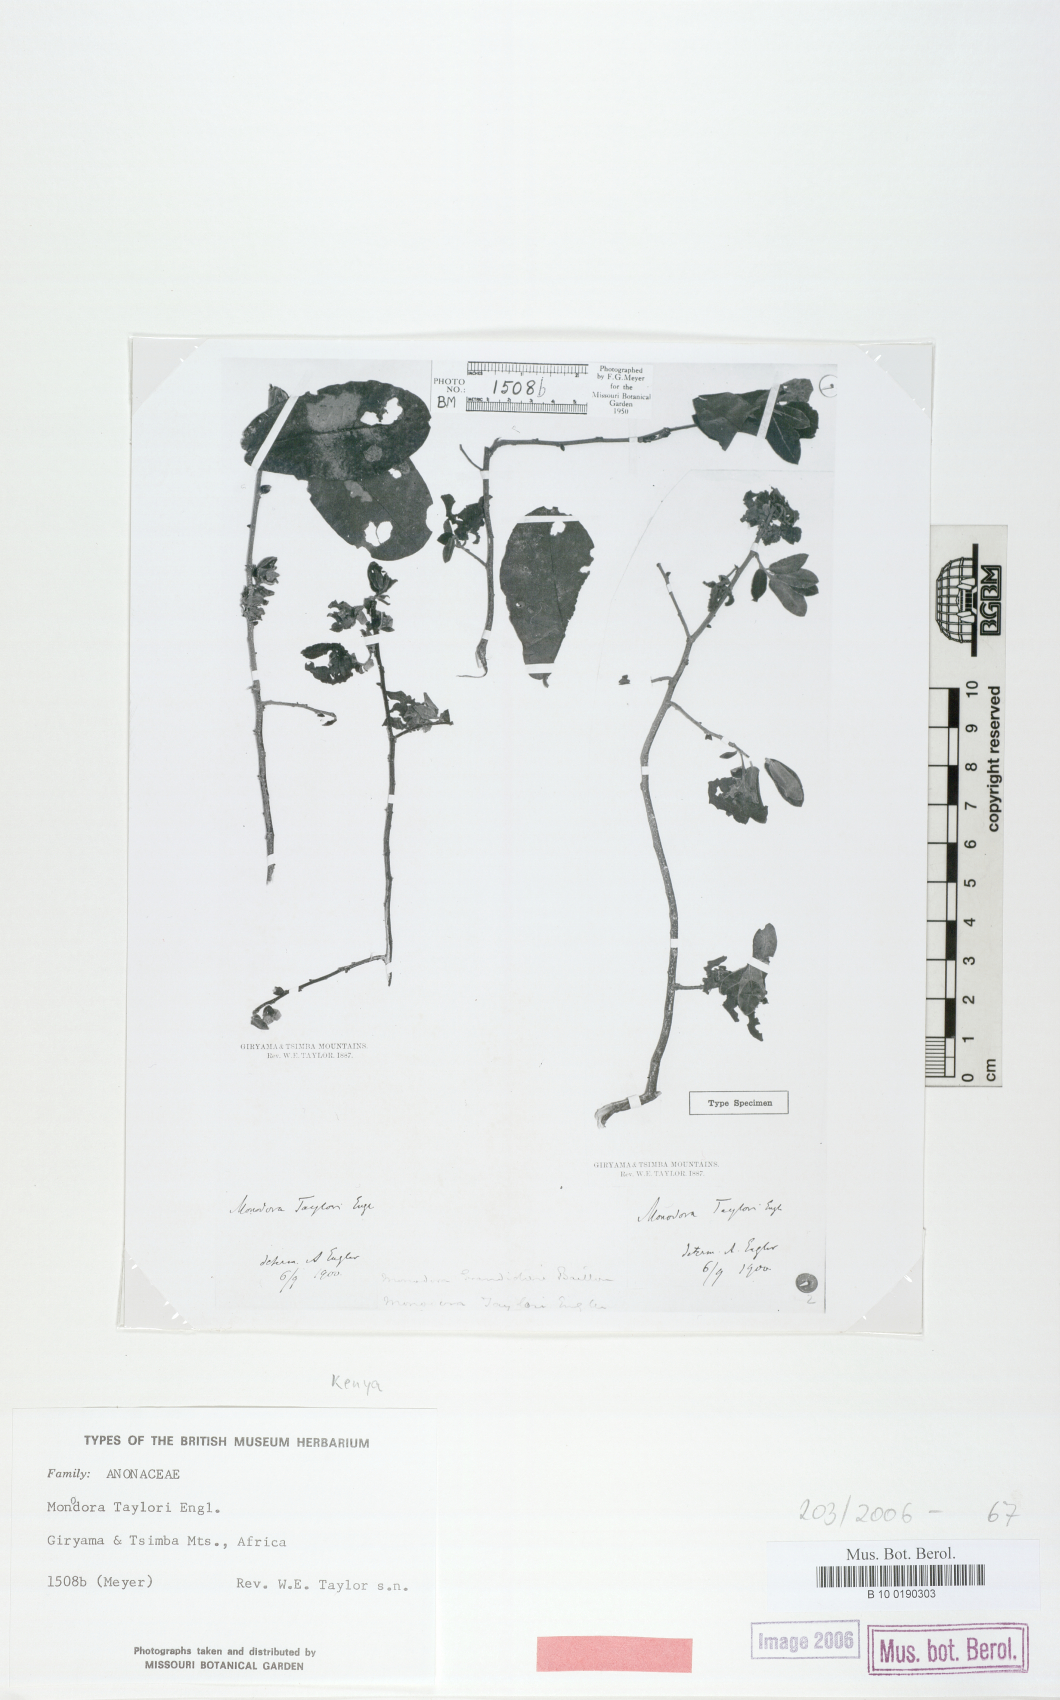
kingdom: Plantae
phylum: Tracheophyta
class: Magnoliopsida
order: Magnoliales
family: Annonaceae
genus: Monodora
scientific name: Monodora
